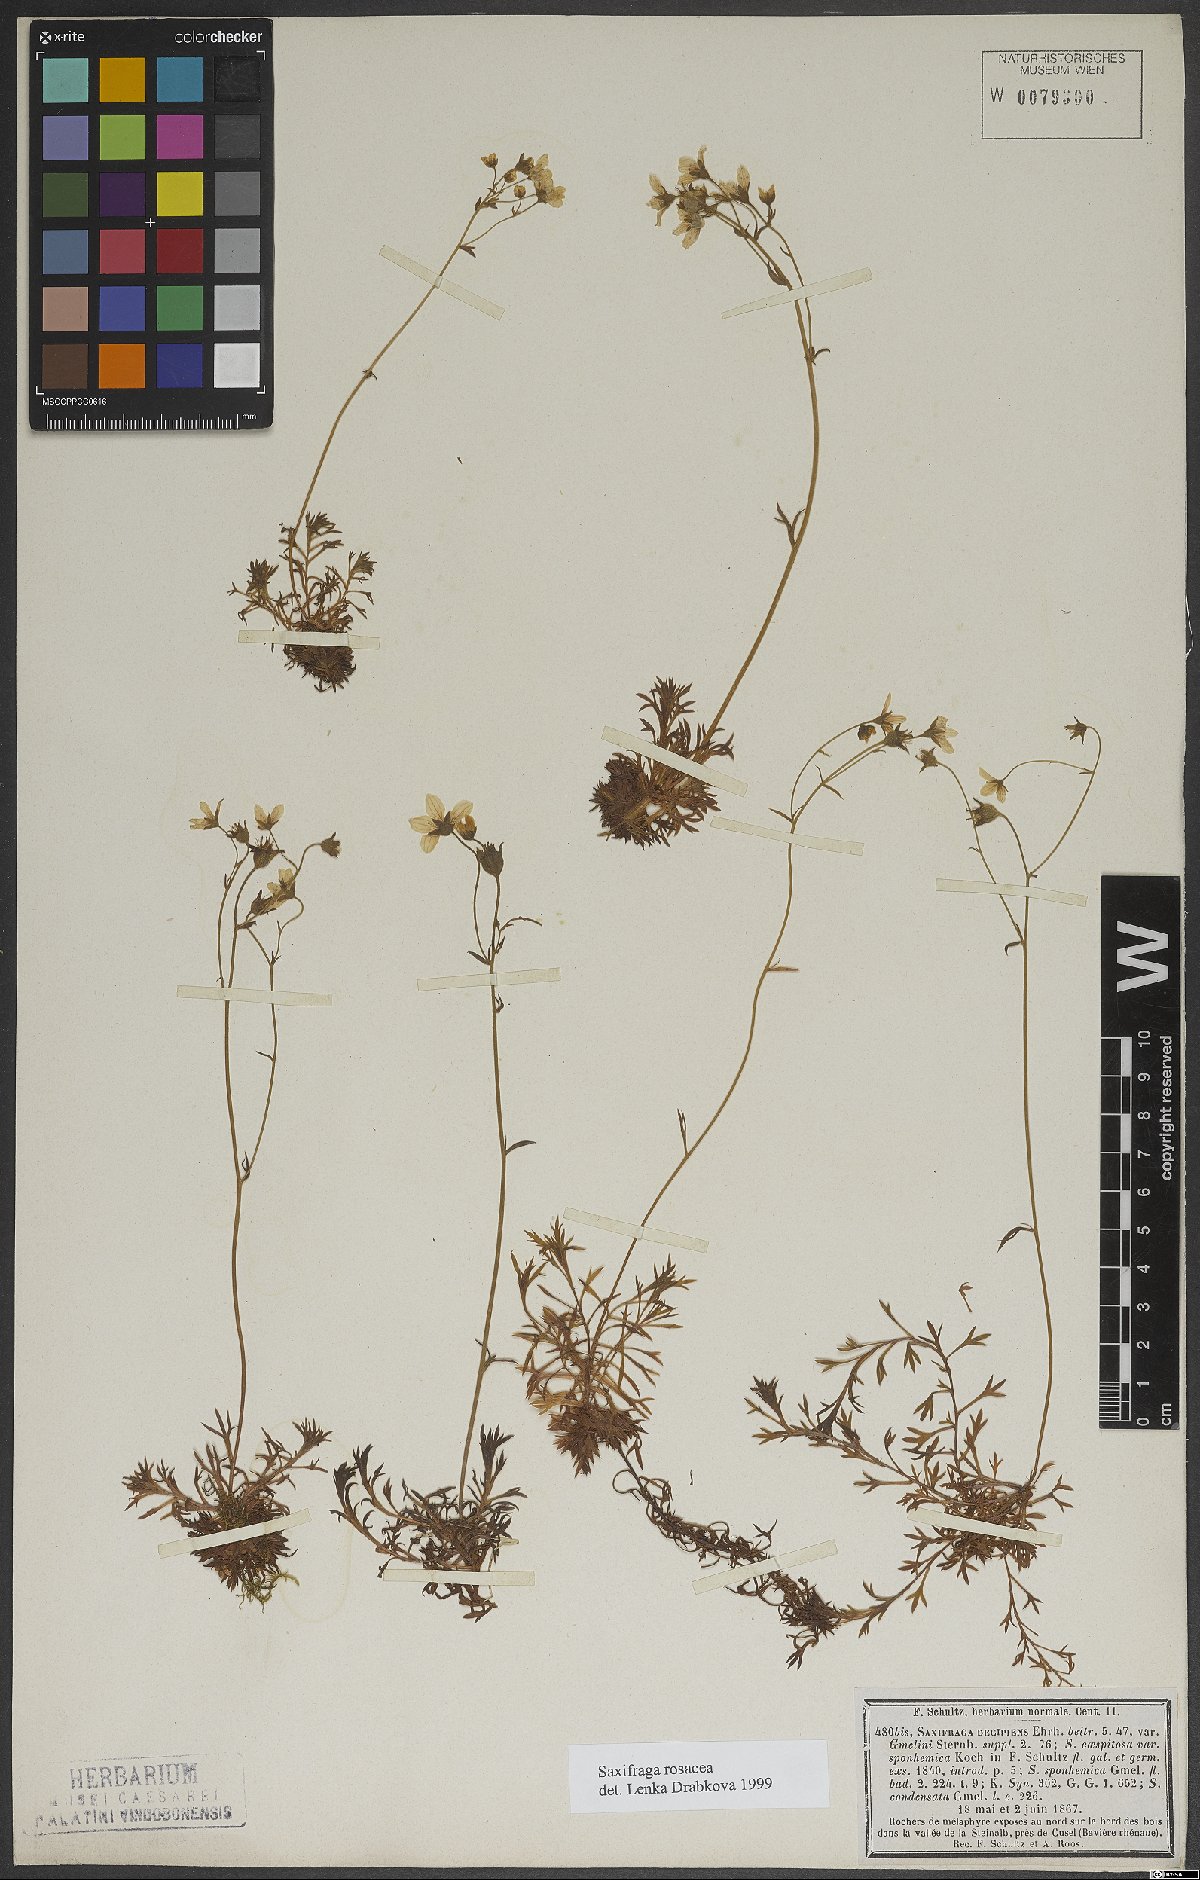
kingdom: Plantae
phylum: Tracheophyta
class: Magnoliopsida
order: Saxifragales
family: Saxifragaceae
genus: Saxifraga
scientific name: Saxifraga rosacea
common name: Irish saxifrage
